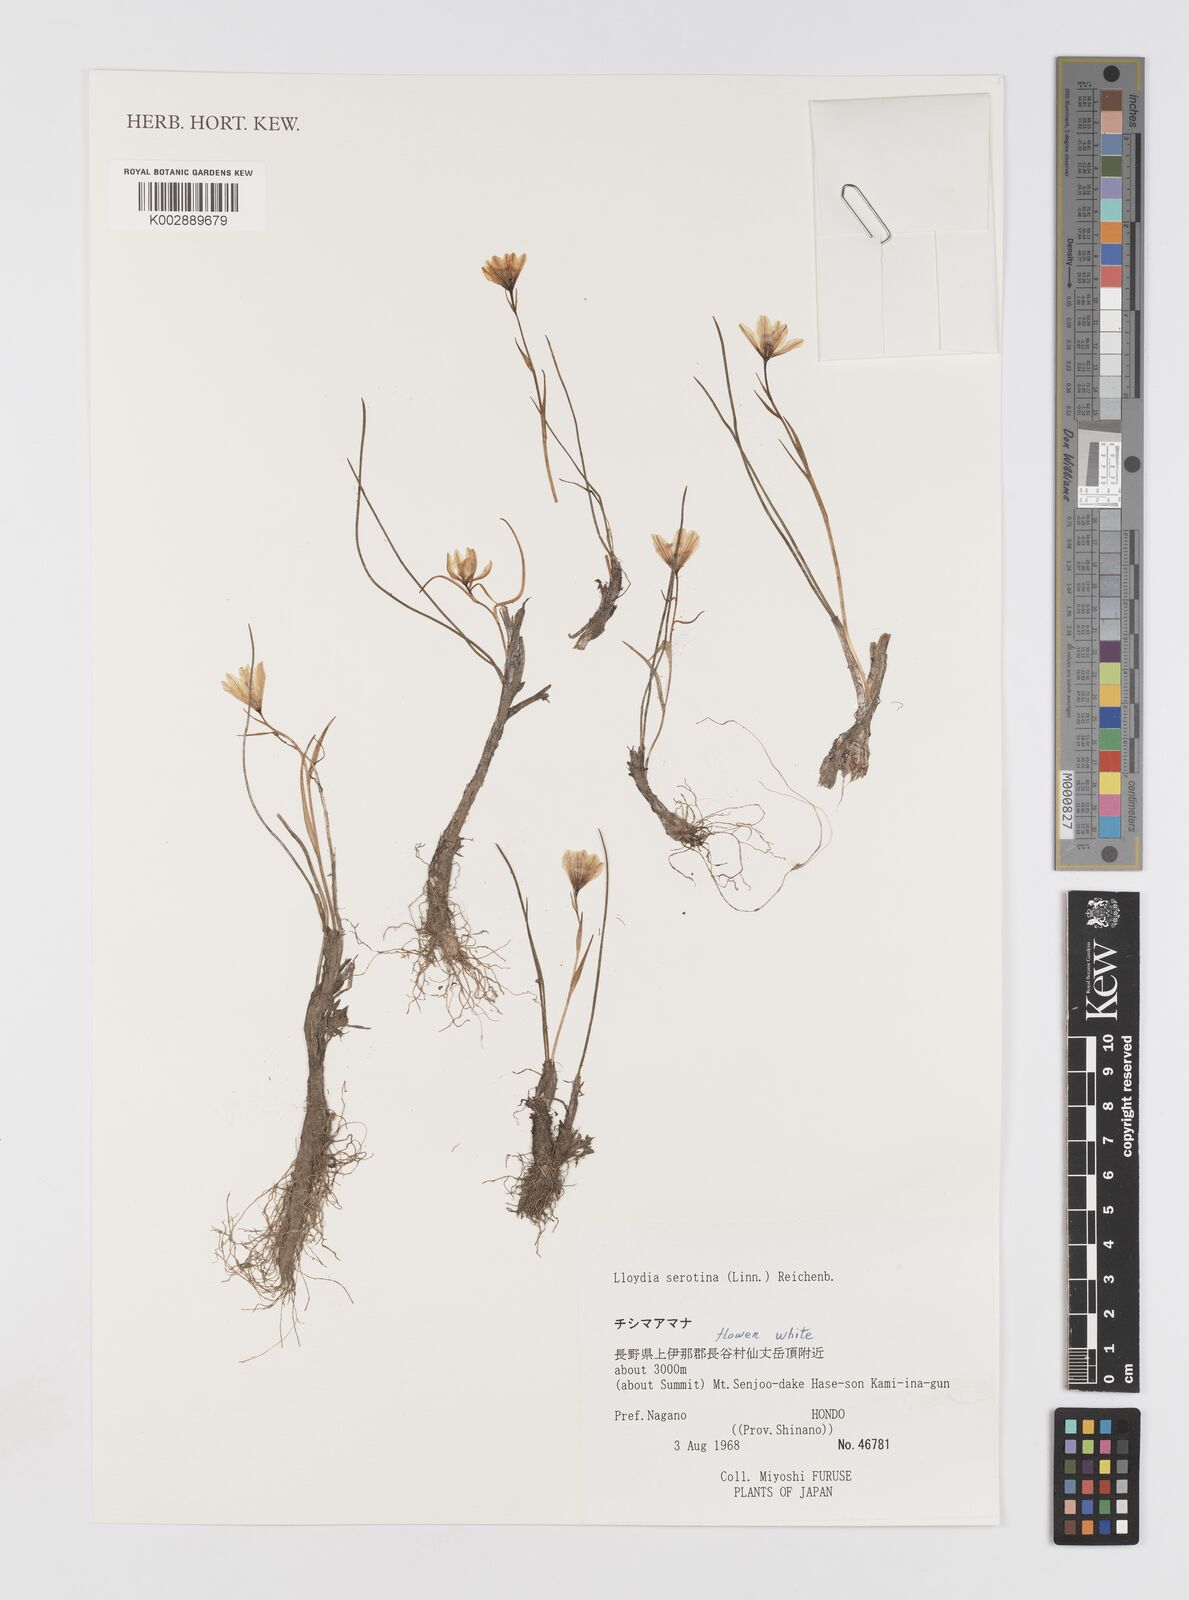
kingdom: Plantae
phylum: Tracheophyta
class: Liliopsida
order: Liliales
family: Liliaceae
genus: Gagea
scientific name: Gagea serotina
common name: Snowdon lily
